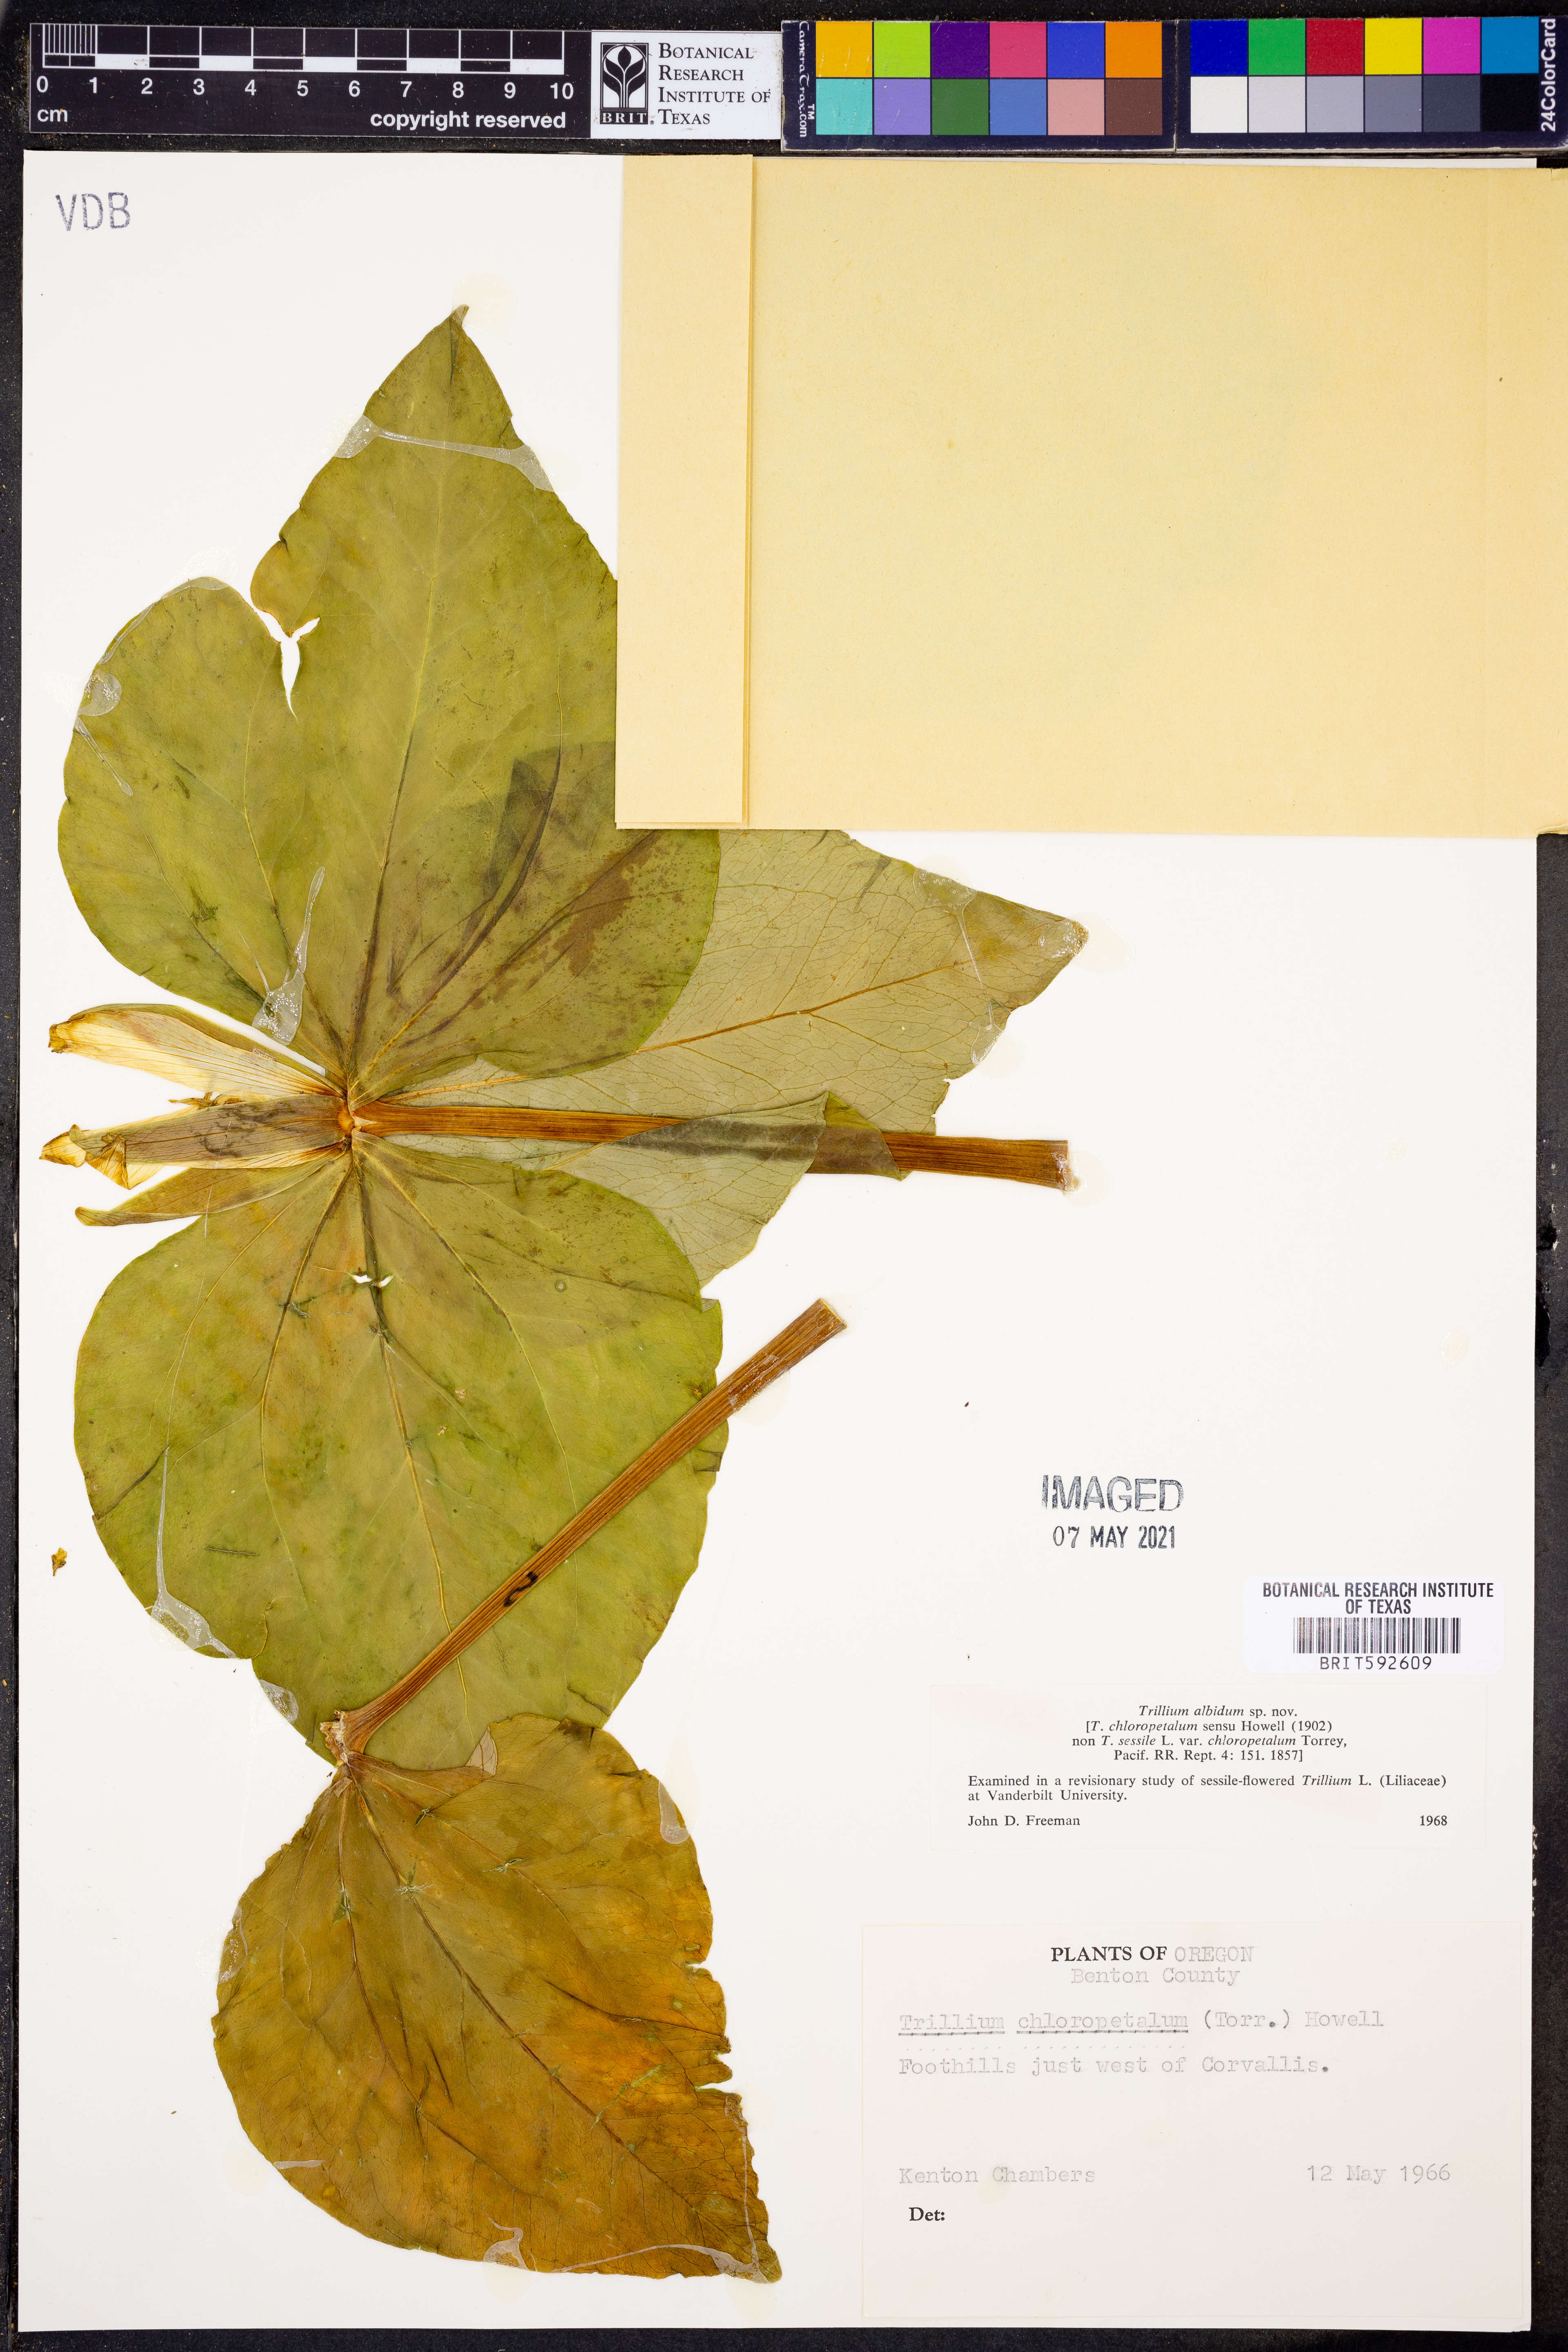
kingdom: Plantae
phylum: Tracheophyta
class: Liliopsida
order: Liliales
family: Melanthiaceae
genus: Trillium
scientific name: Trillium albidum
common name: Freeman's trillium
